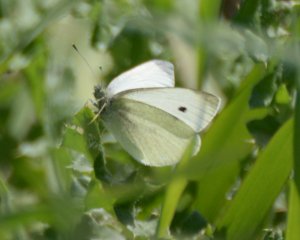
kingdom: Animalia
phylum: Arthropoda
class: Insecta
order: Lepidoptera
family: Pieridae
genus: Pieris
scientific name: Pieris rapae
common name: Cabbage White
